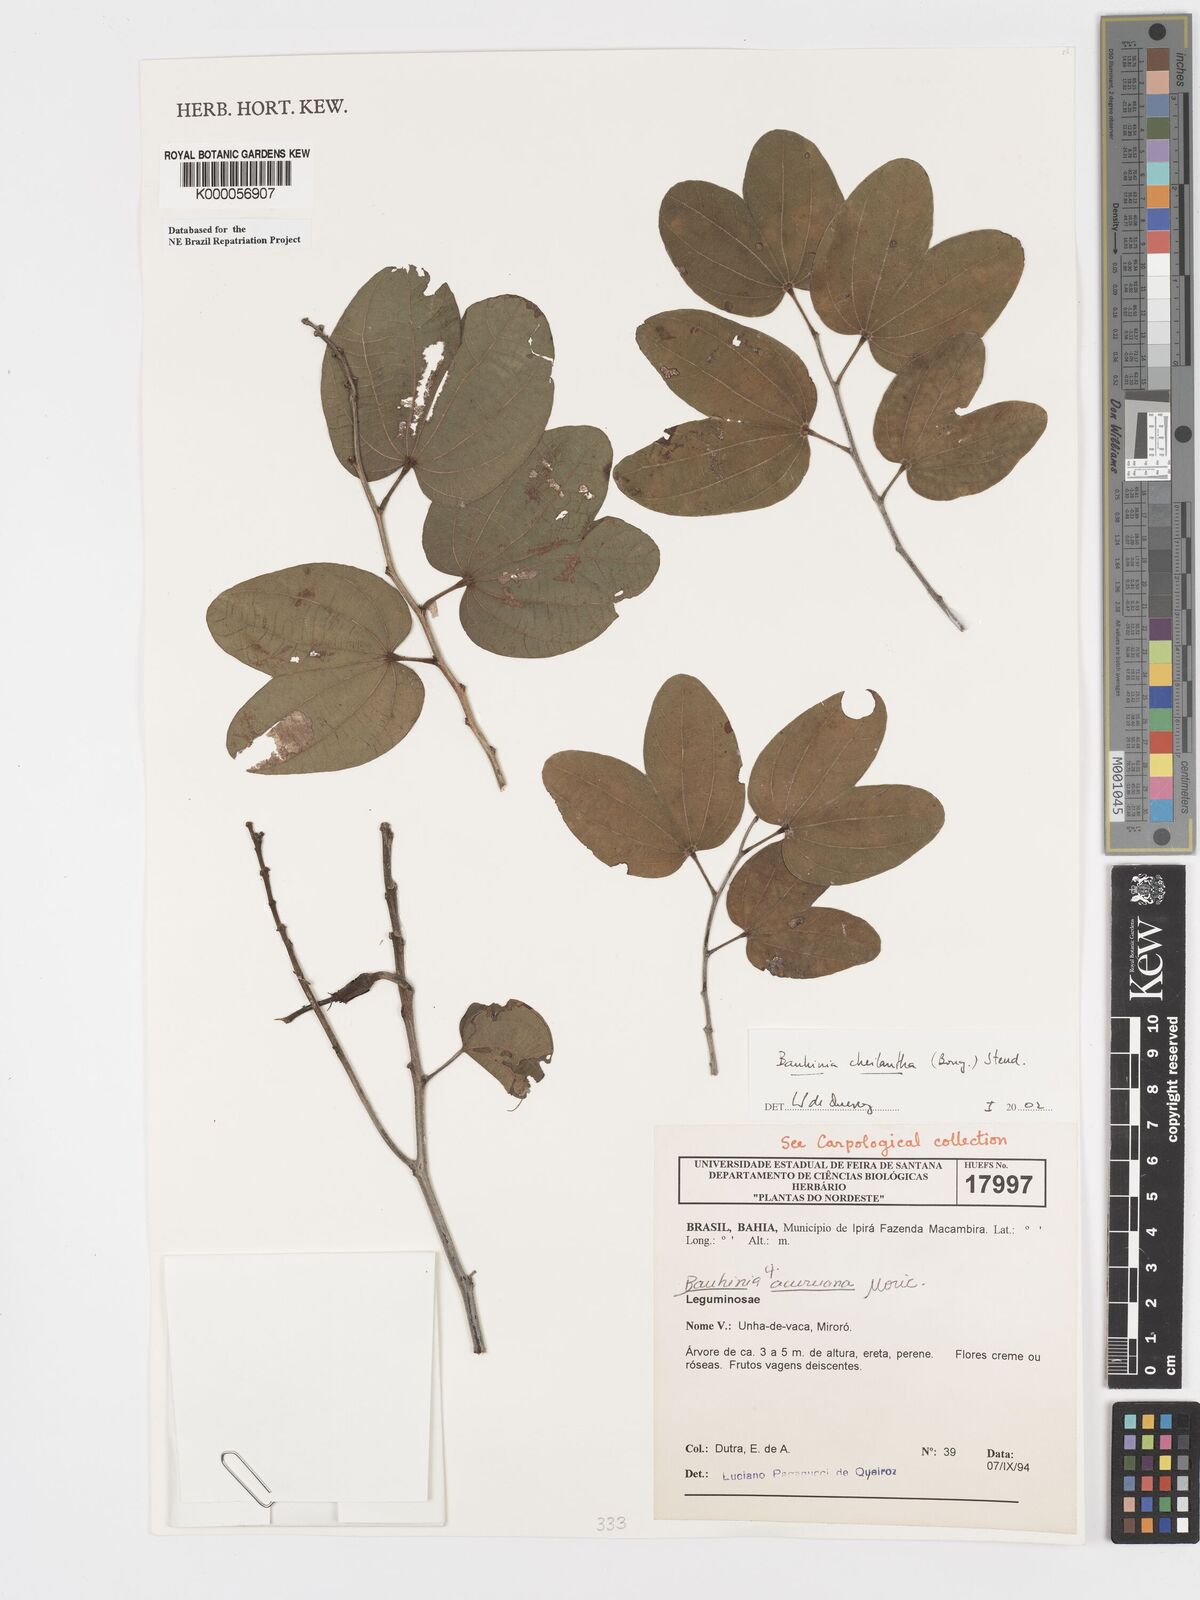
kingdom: Plantae
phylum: Tracheophyta
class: Magnoliopsida
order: Fabales
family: Fabaceae
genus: Bauhinia
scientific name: Bauhinia cheilantha
